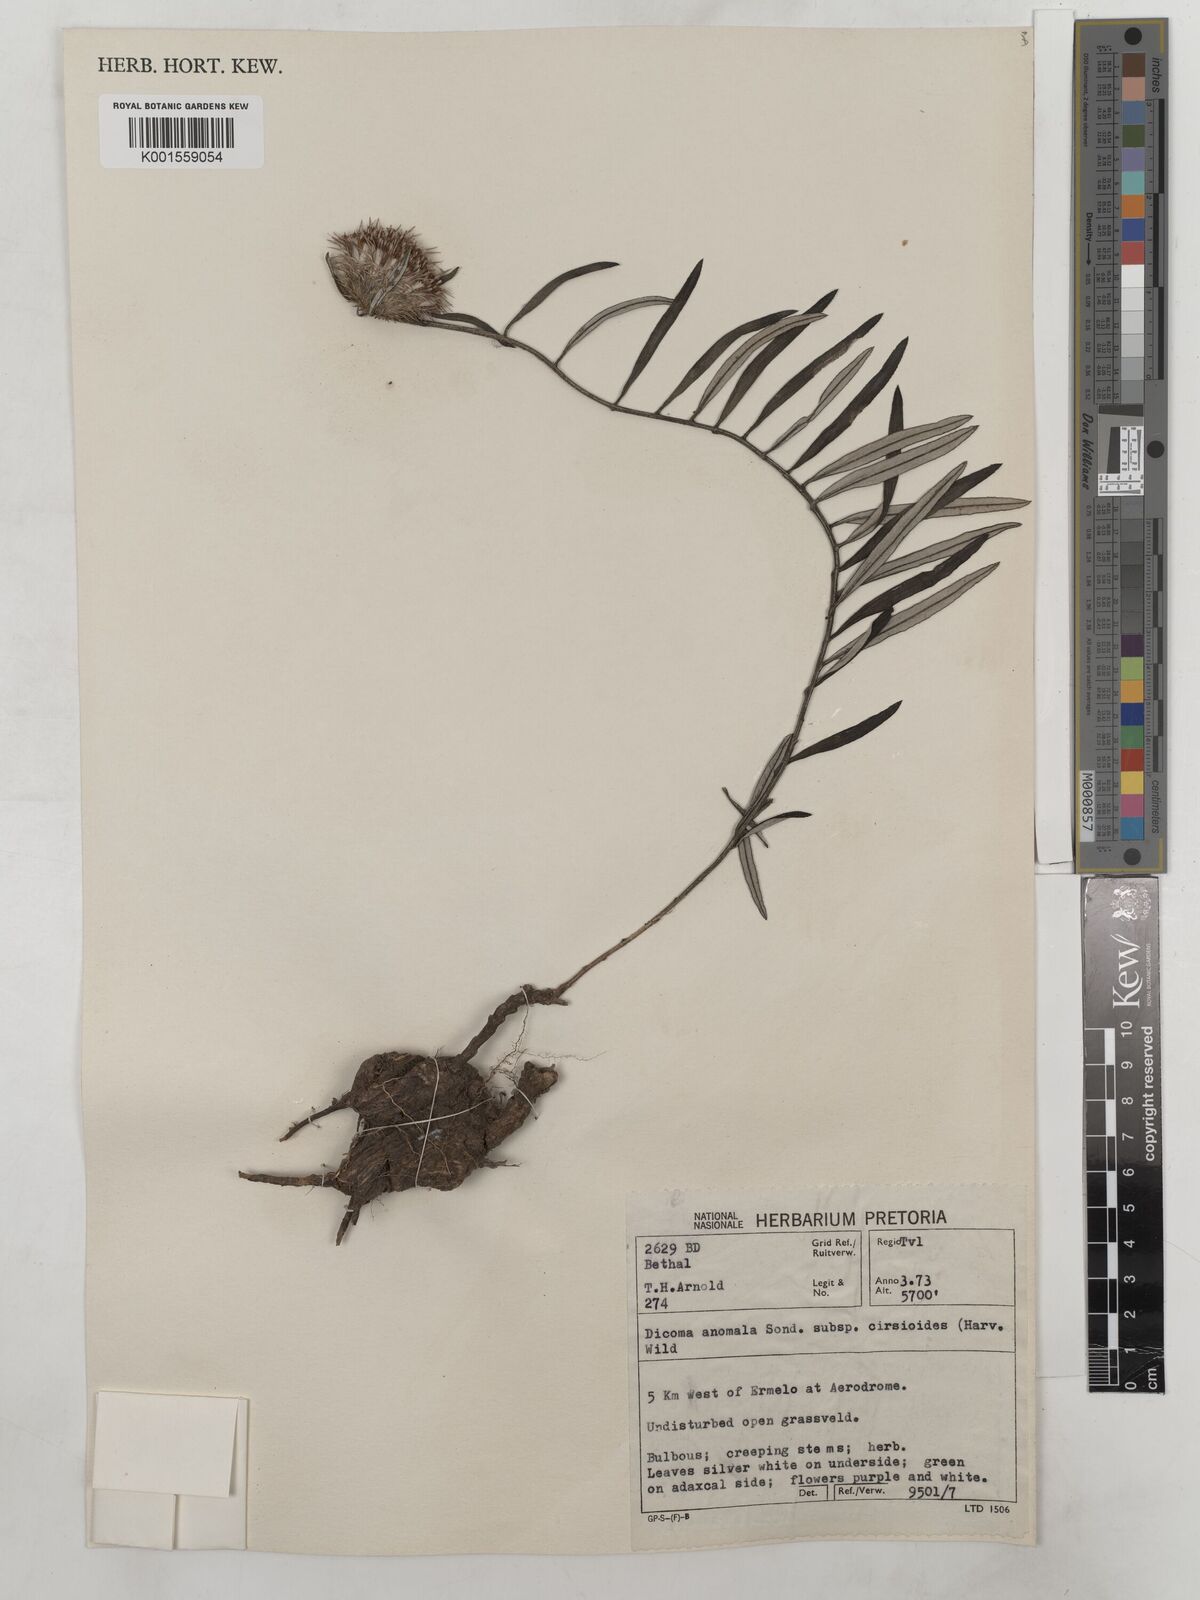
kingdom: Plantae
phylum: Tracheophyta
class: Magnoliopsida
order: Asterales
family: Asteraceae
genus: Dicoma
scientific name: Dicoma anomala
